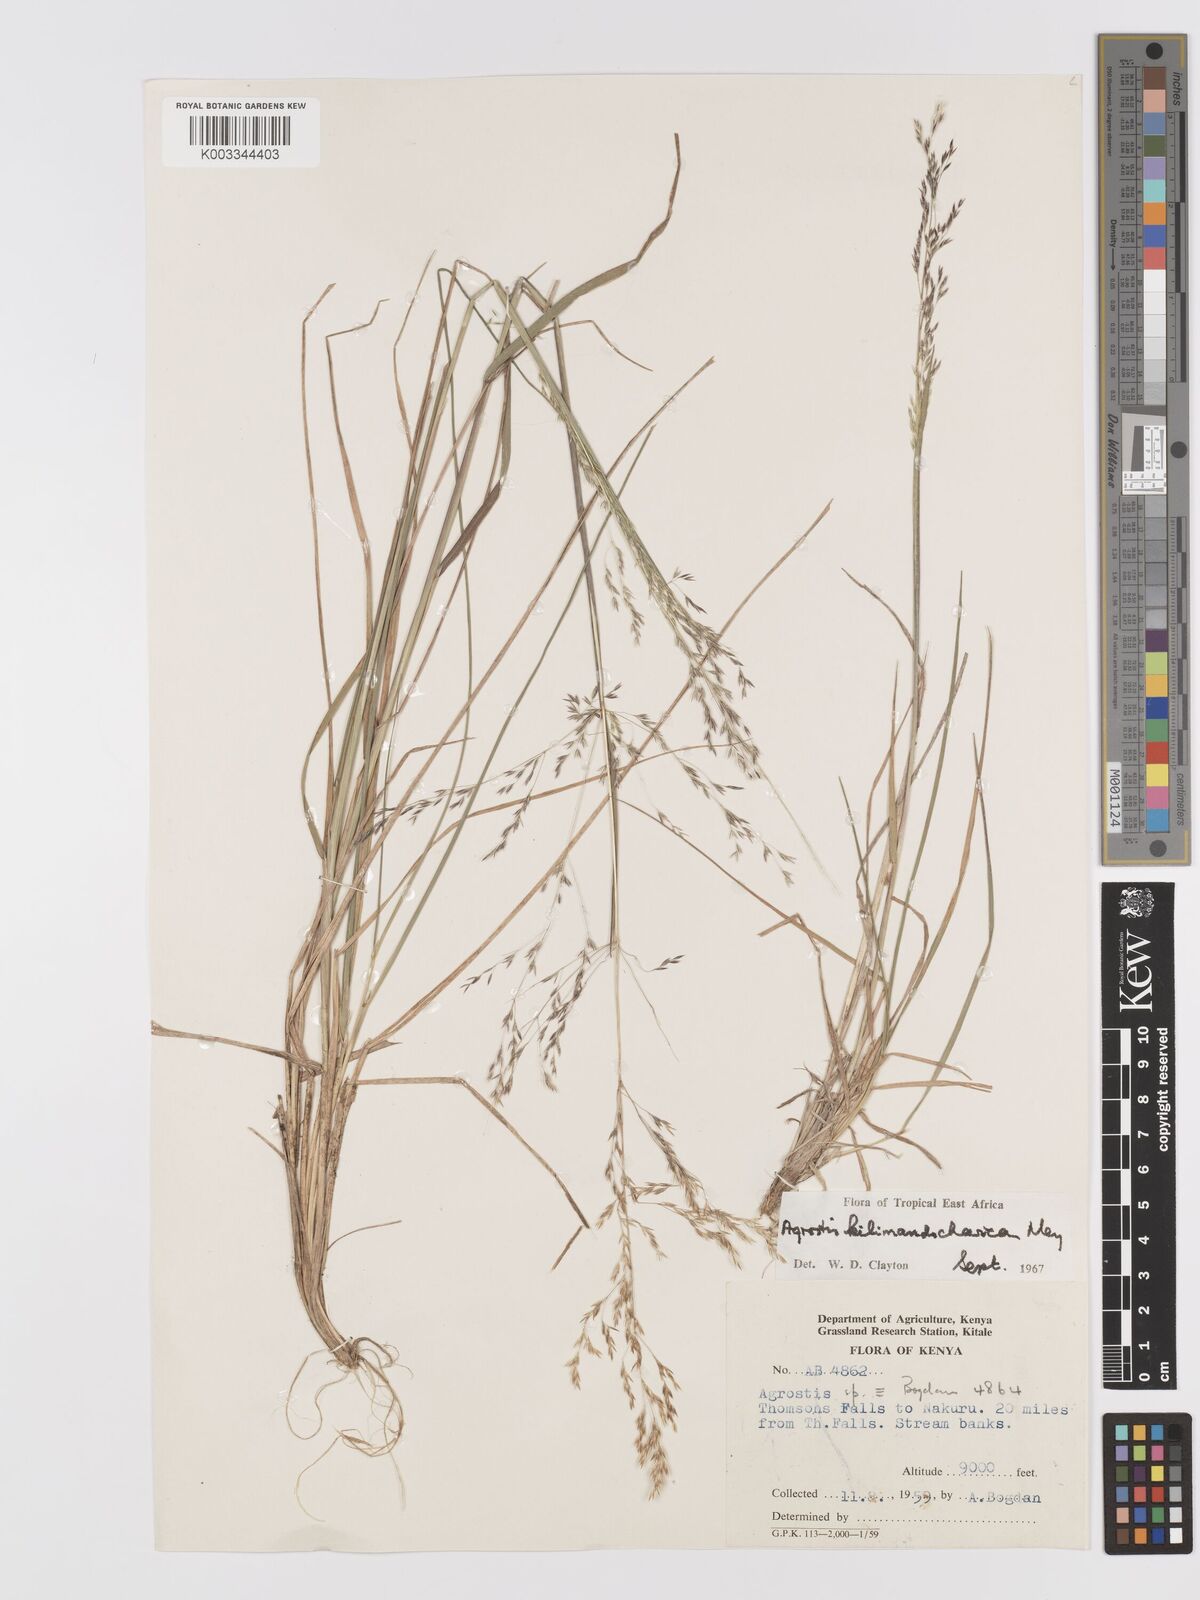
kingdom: Plantae
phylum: Tracheophyta
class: Liliopsida
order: Poales
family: Poaceae
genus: Agrostis
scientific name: Agrostis kilimandscharica
